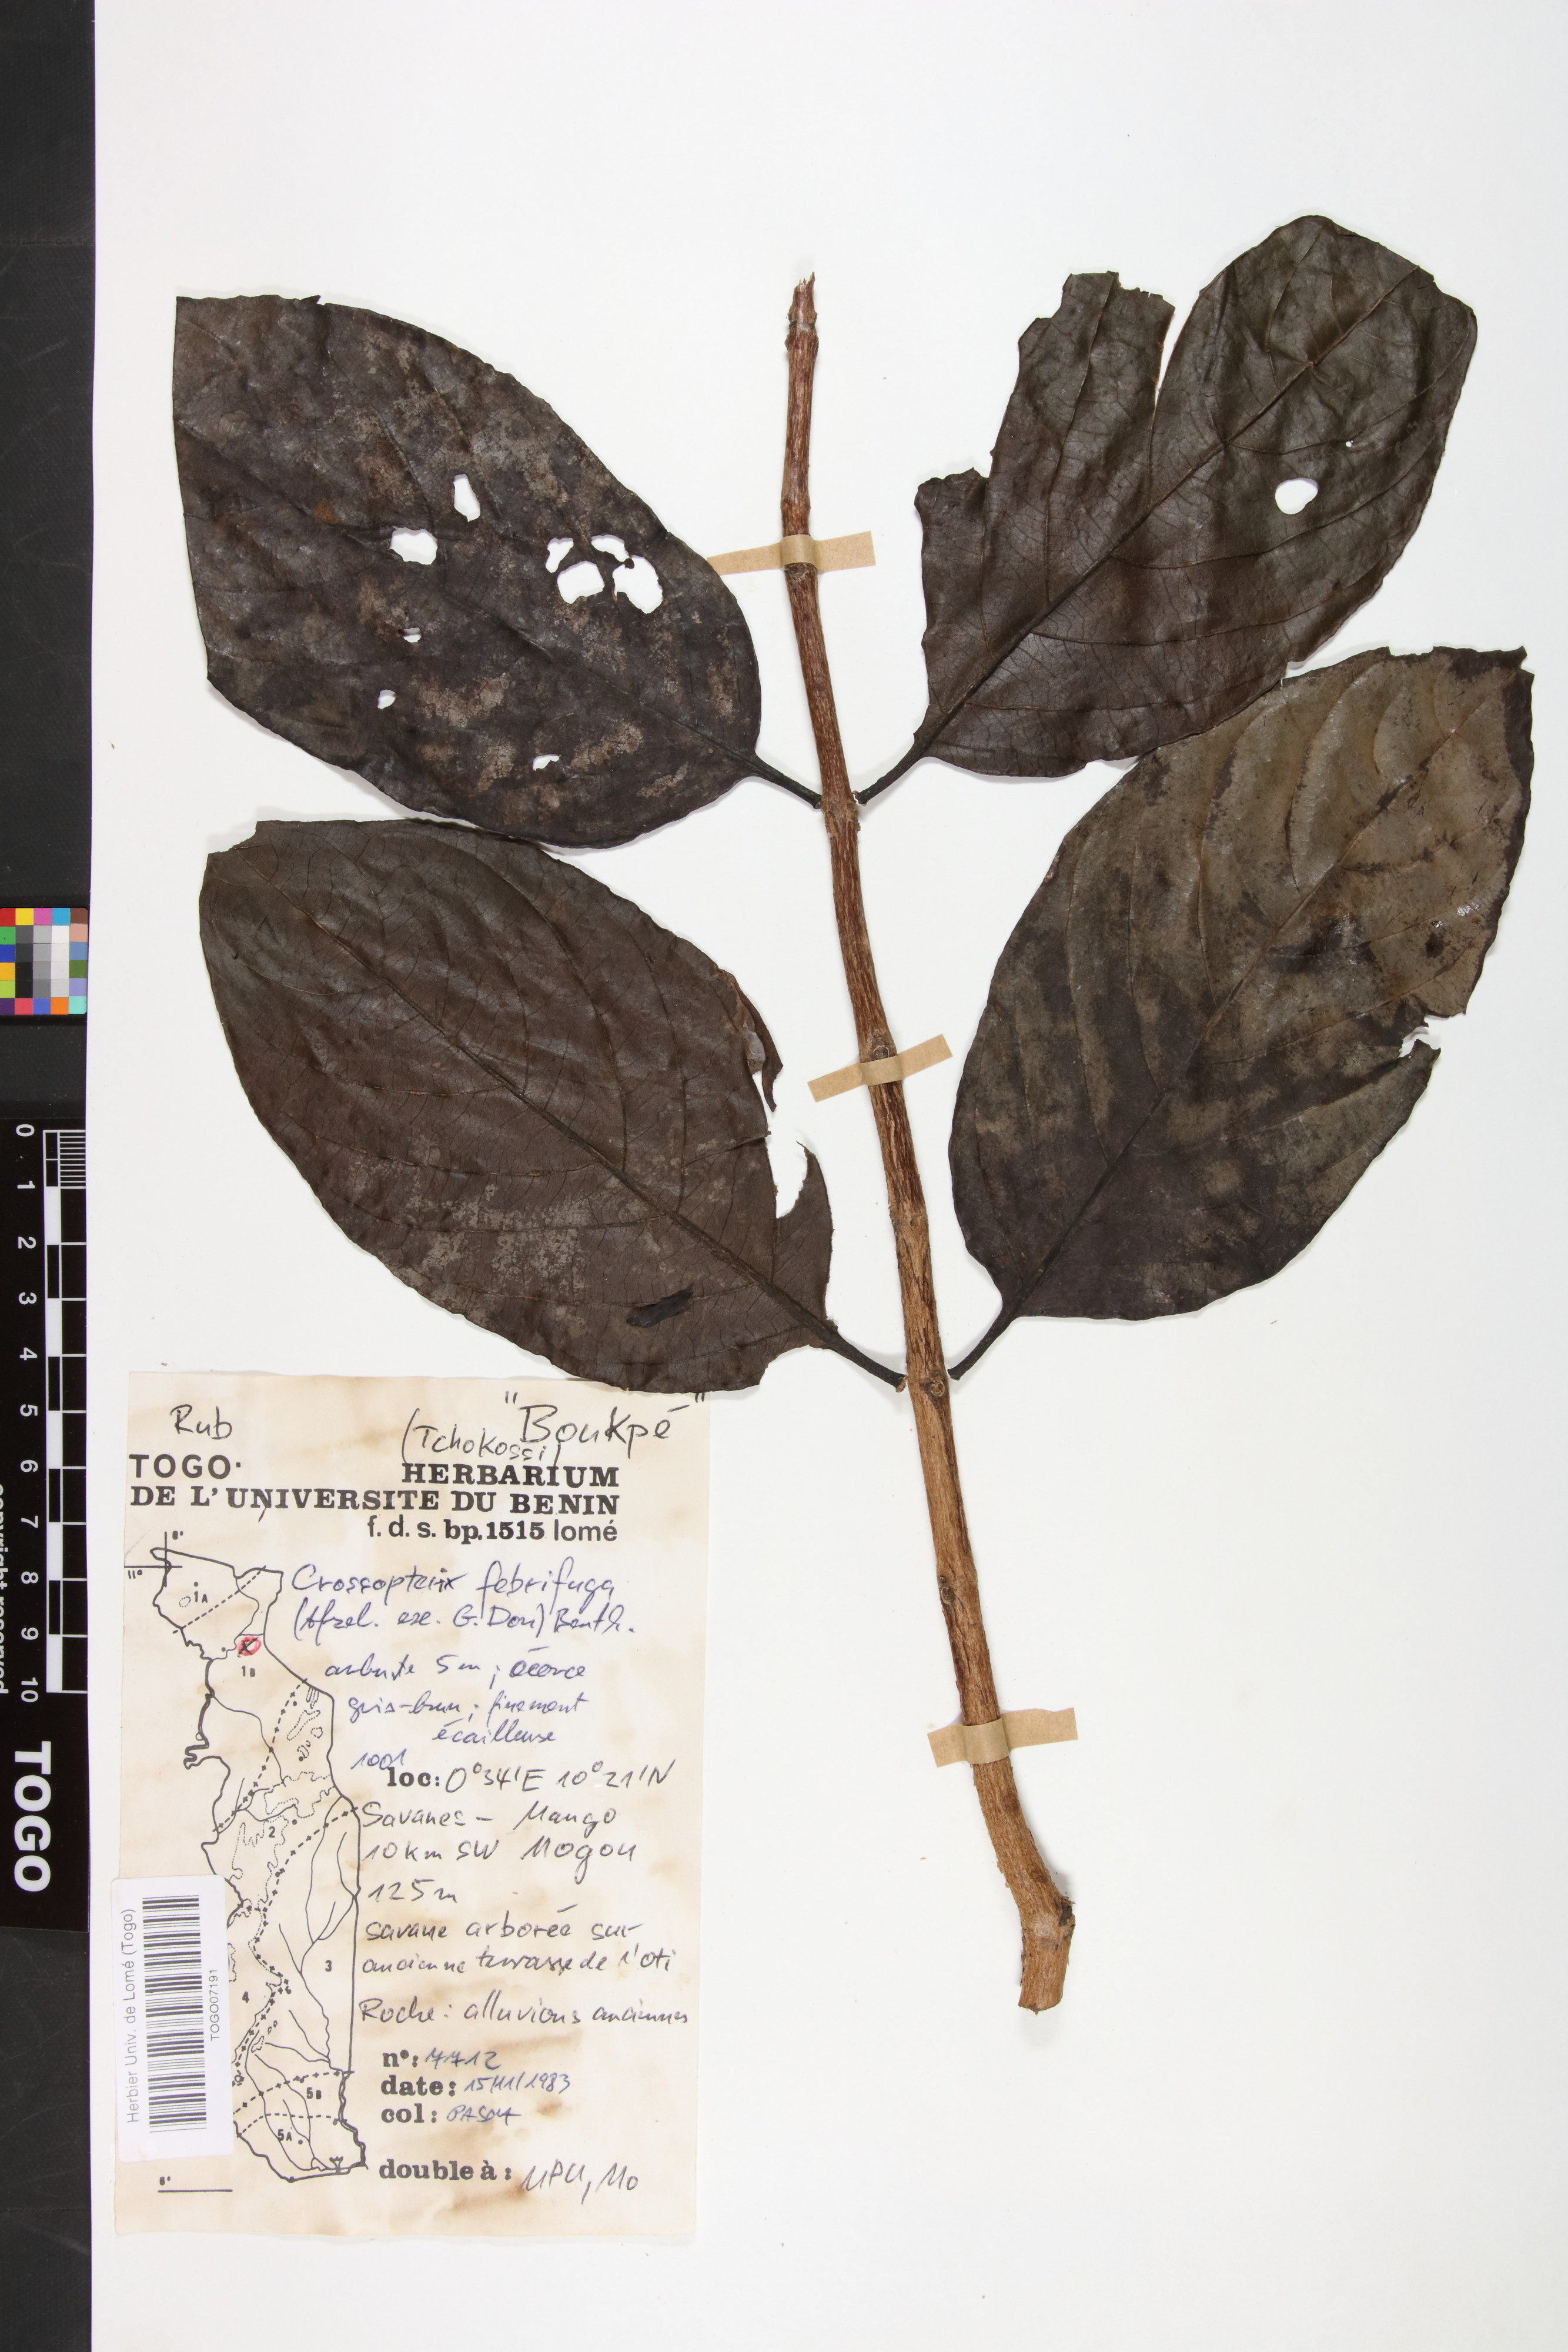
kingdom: Plantae
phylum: Tracheophyta
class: Magnoliopsida
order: Gentianales
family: Rubiaceae
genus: Crossopteryx
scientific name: Crossopteryx febrifuga
